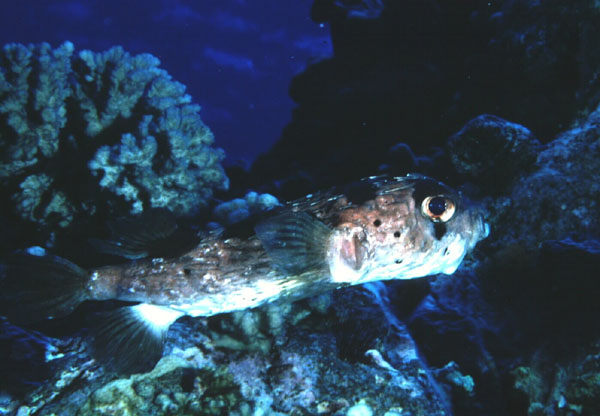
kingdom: Animalia
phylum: Chordata
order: Tetraodontiformes
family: Diodontidae
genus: Diodon
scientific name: Diodon holocanthus
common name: Balloonfish
